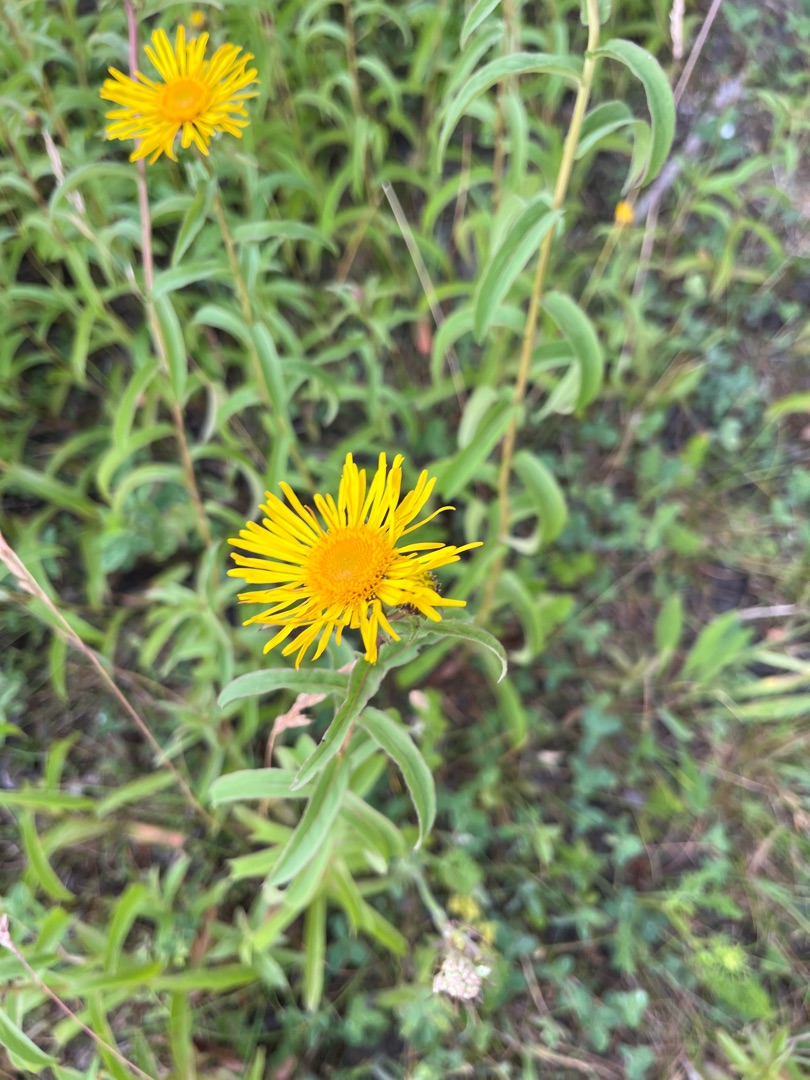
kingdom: Plantae
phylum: Tracheophyta
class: Magnoliopsida
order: Asterales
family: Asteraceae
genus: Pentanema
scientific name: Pentanema salicinum
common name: Pile-alant
